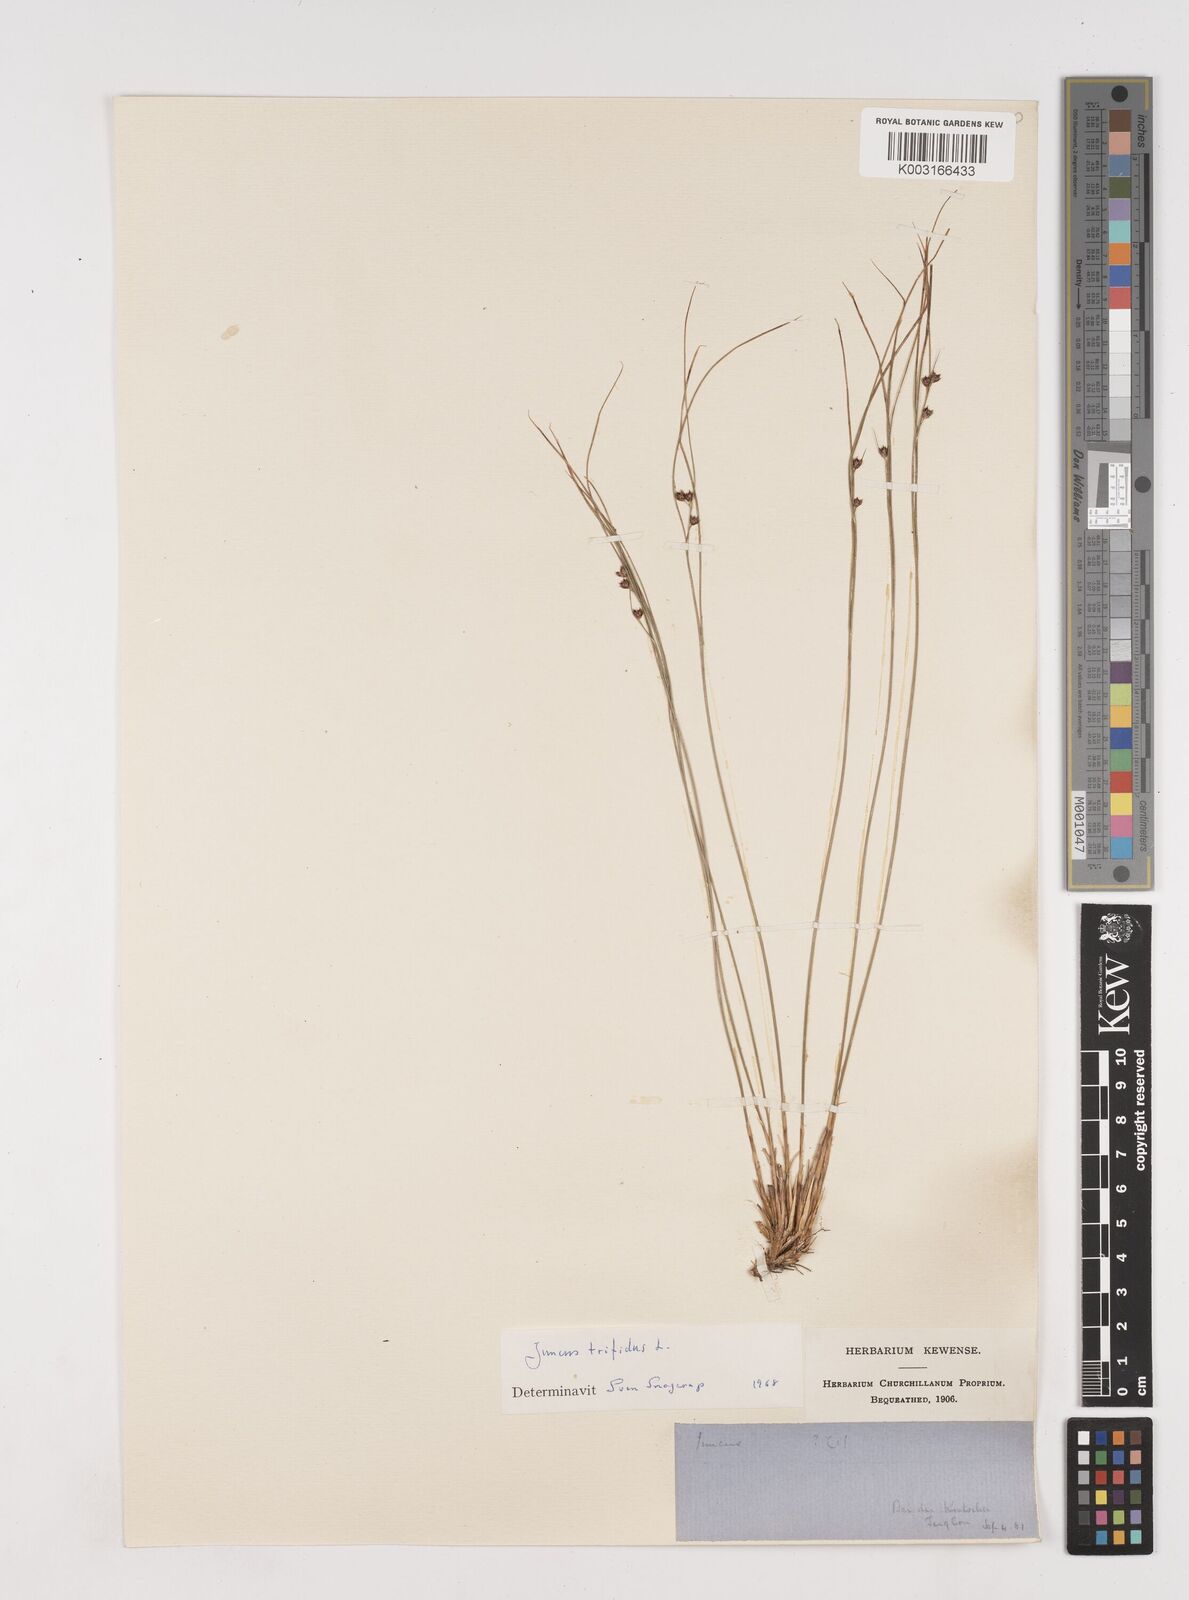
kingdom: Plantae
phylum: Tracheophyta
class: Liliopsida
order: Poales
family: Juncaceae
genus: Oreojuncus
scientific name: Oreojuncus trifidus
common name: Highland rush
